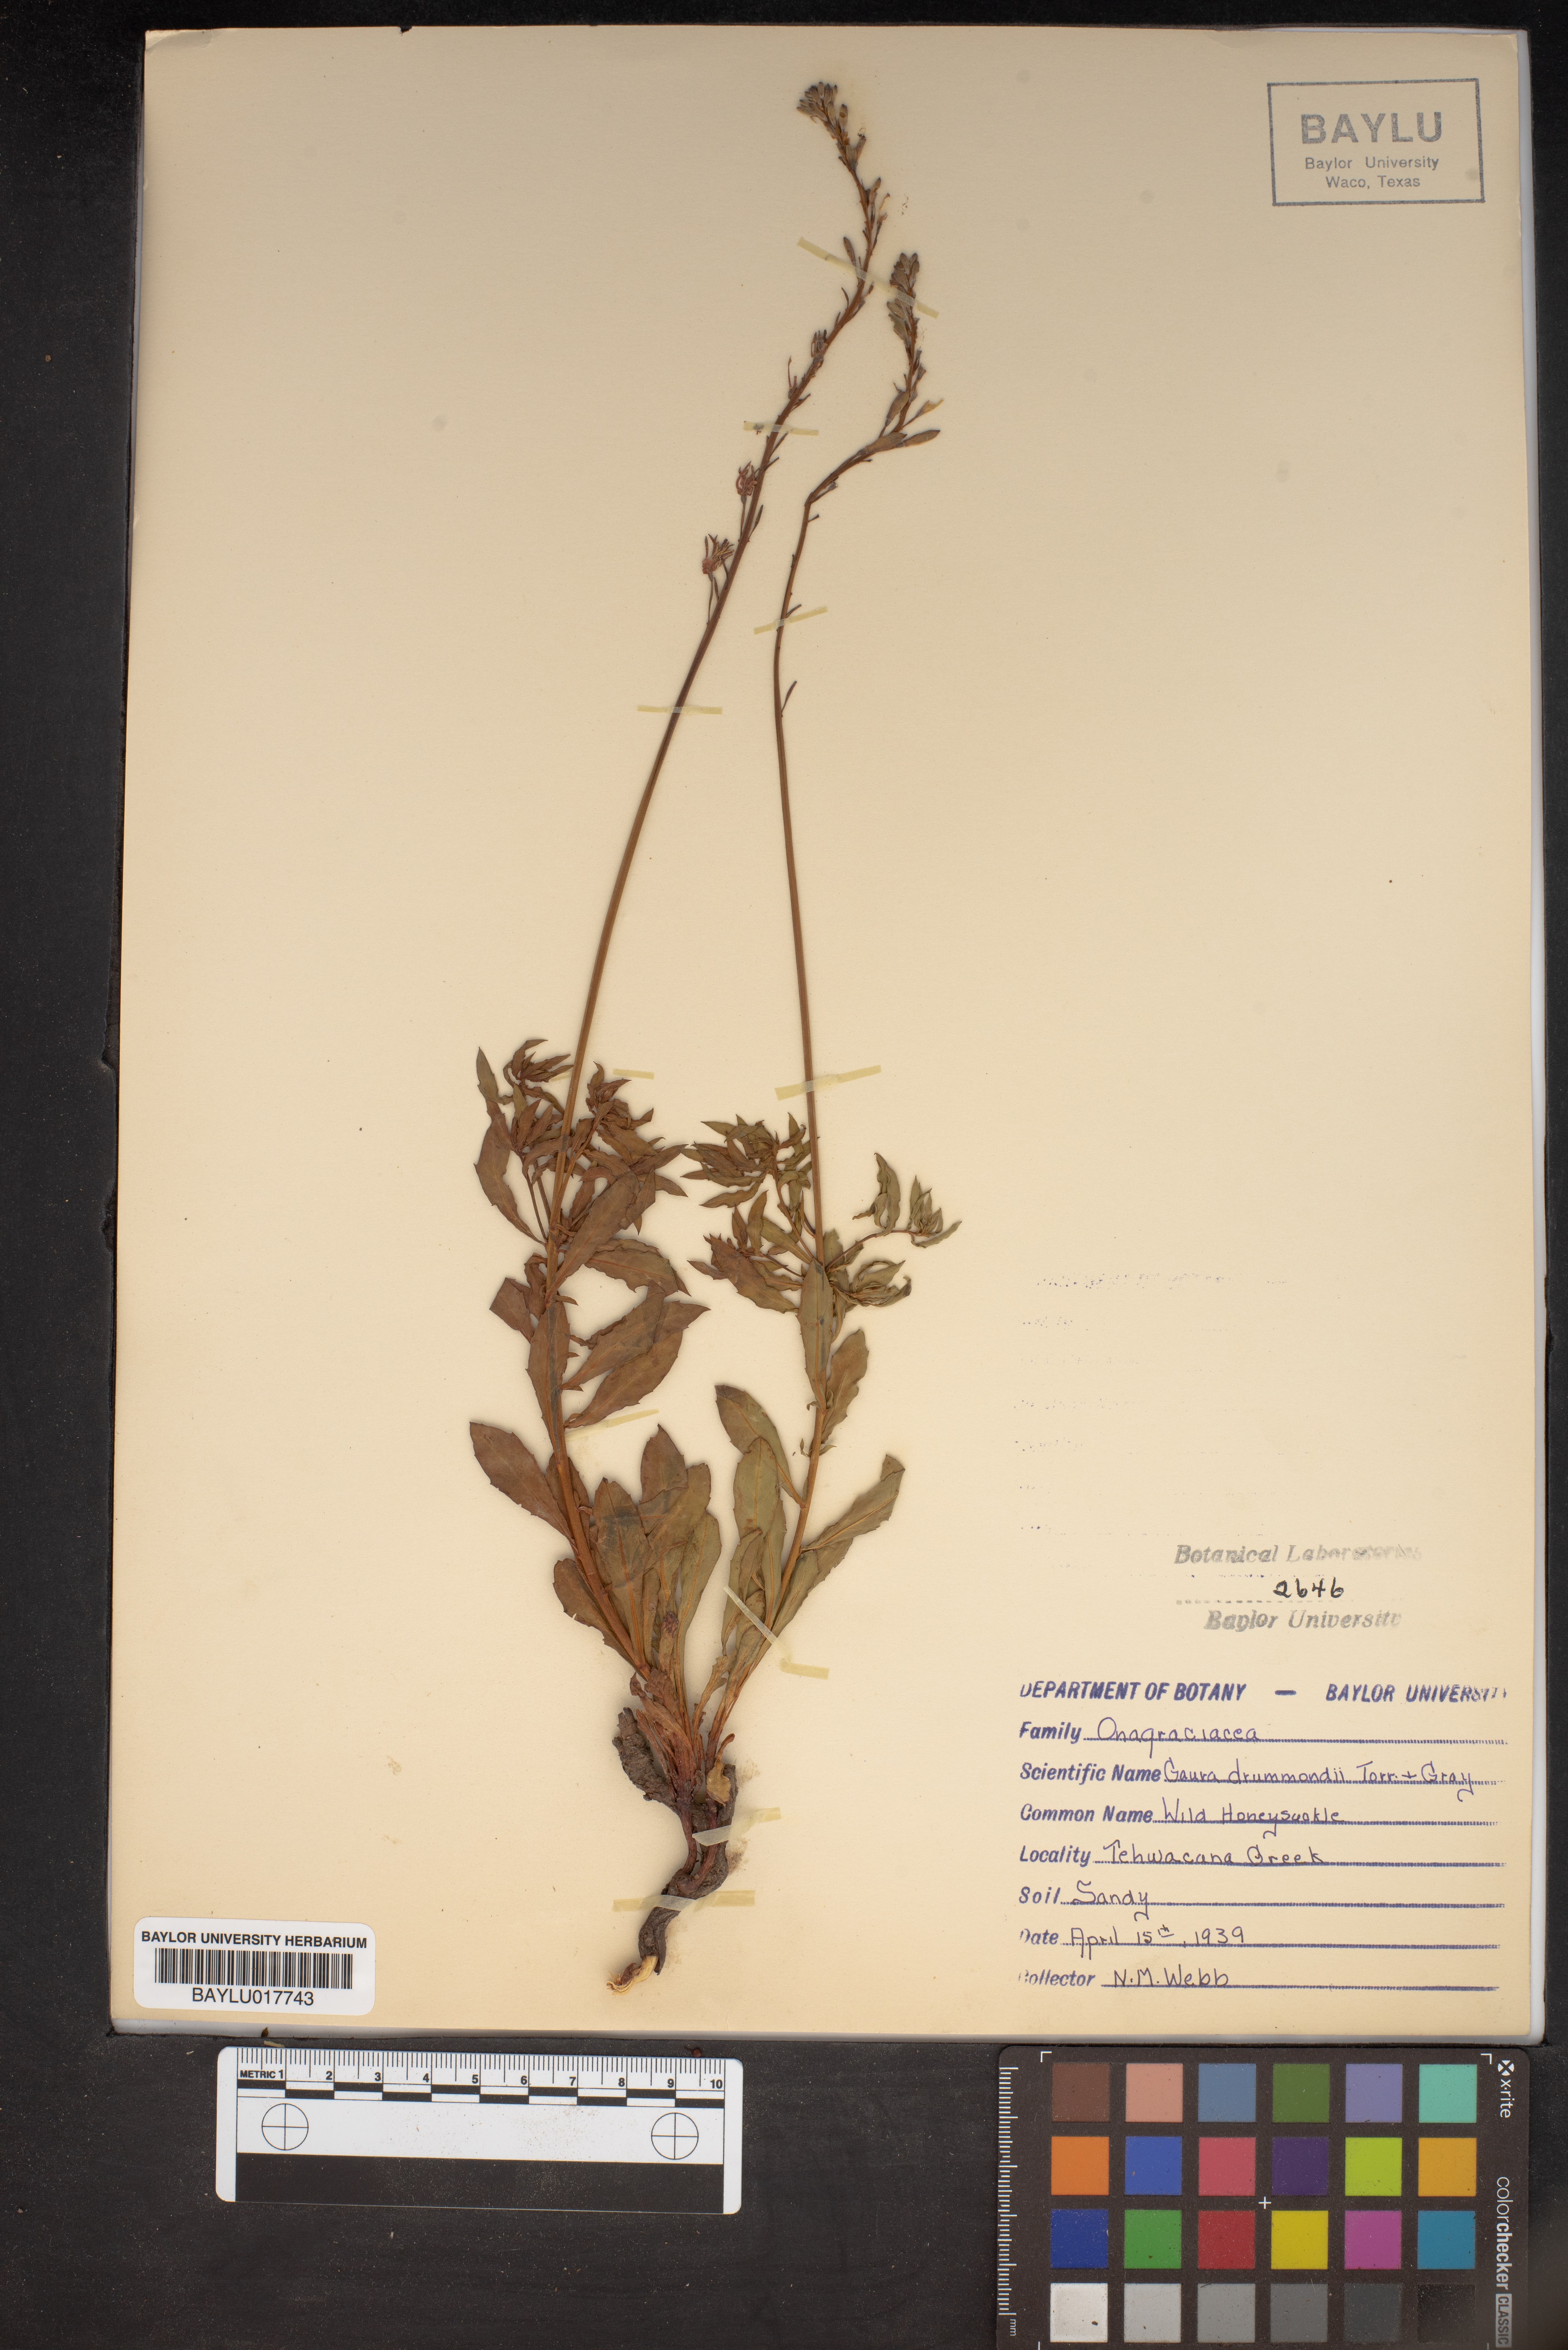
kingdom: Plantae
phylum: Tracheophyta
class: Magnoliopsida
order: Myrtales
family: Onagraceae
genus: Oenothera
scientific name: Oenothera hispida
